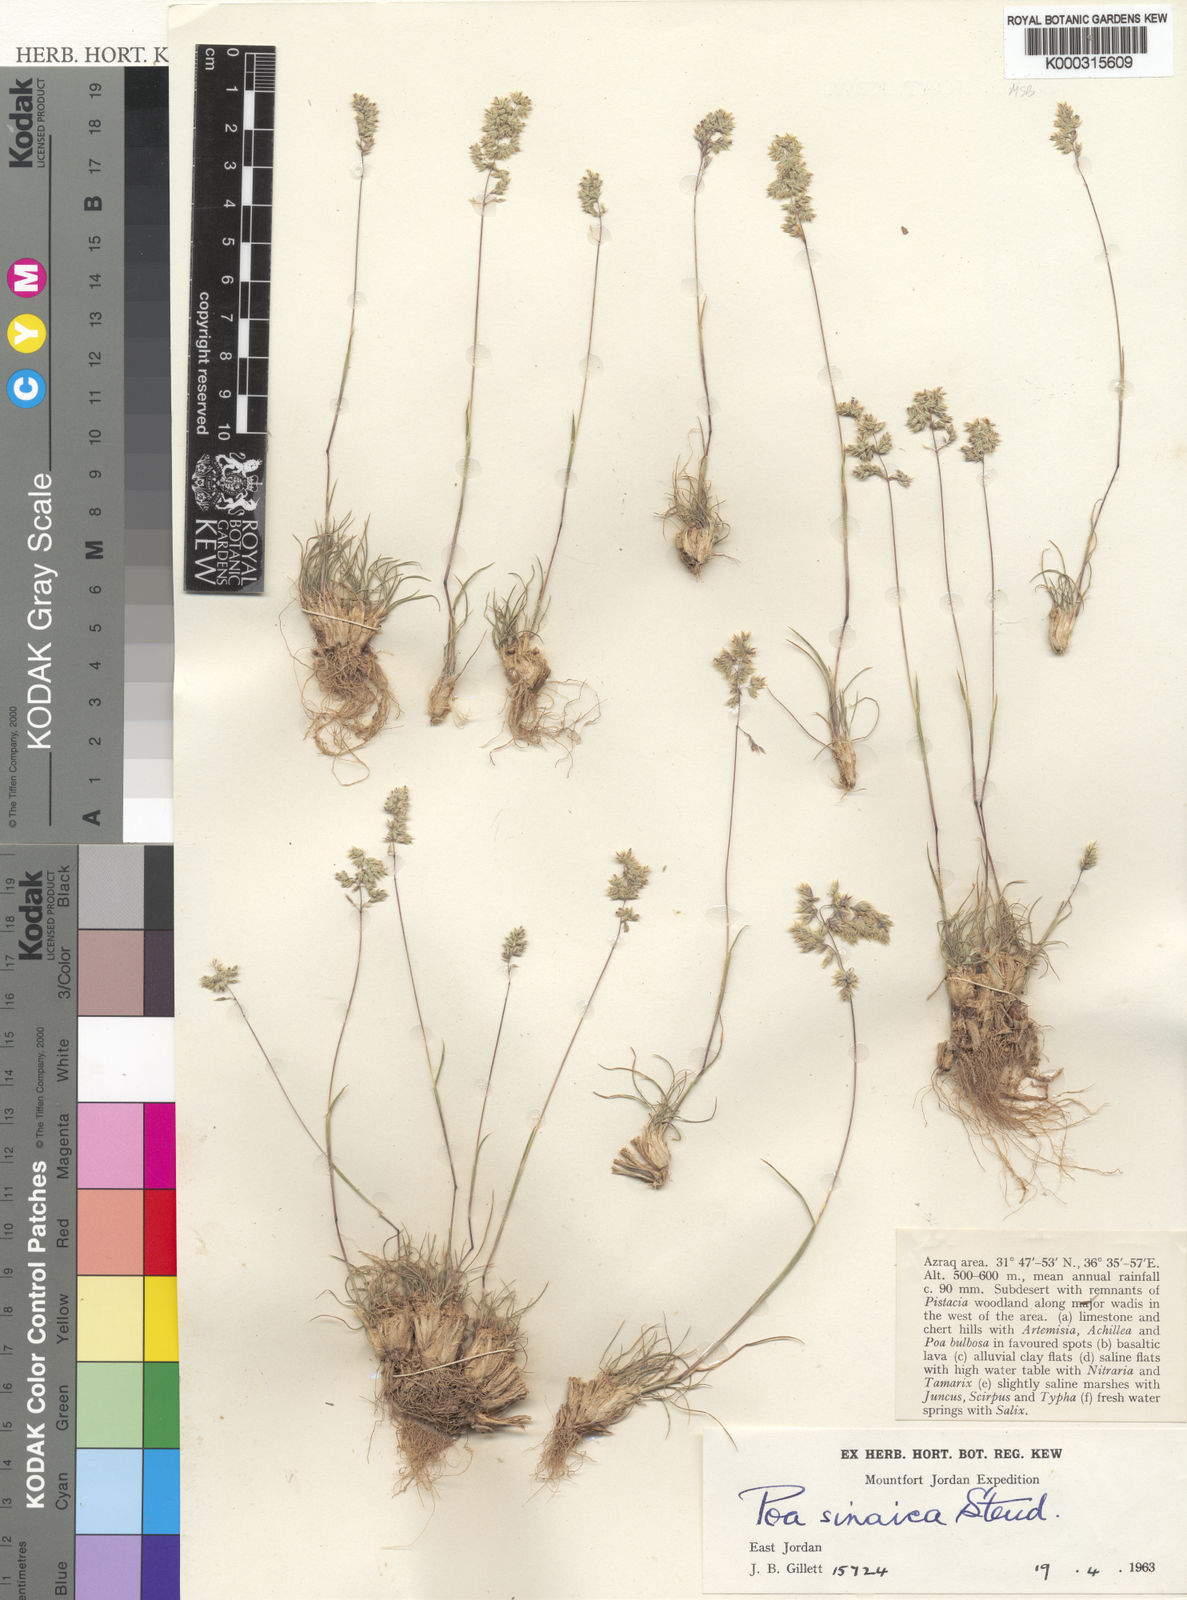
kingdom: Plantae
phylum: Tracheophyta
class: Liliopsida
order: Poales
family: Poaceae
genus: Poa
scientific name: Poa sinaica
